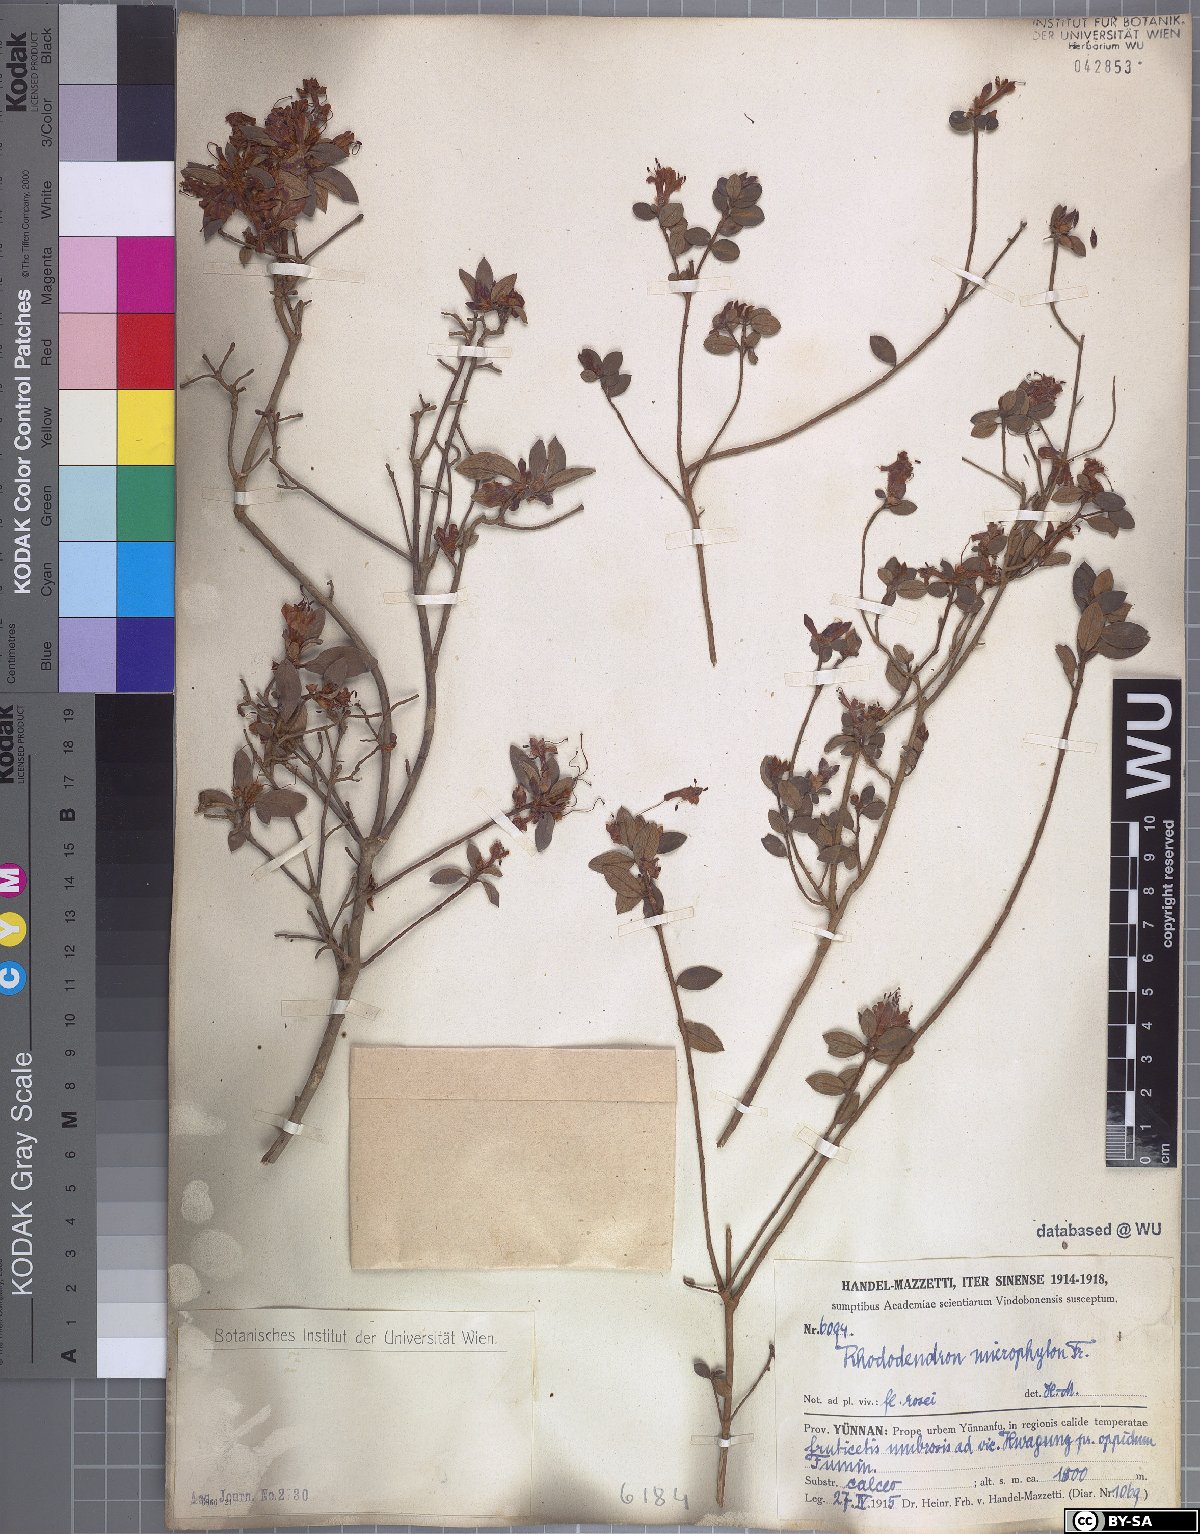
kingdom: Plantae
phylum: Tracheophyta
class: Magnoliopsida
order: Ericales
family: Ericaceae
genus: Rhododendron
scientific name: Rhododendron microphyton
